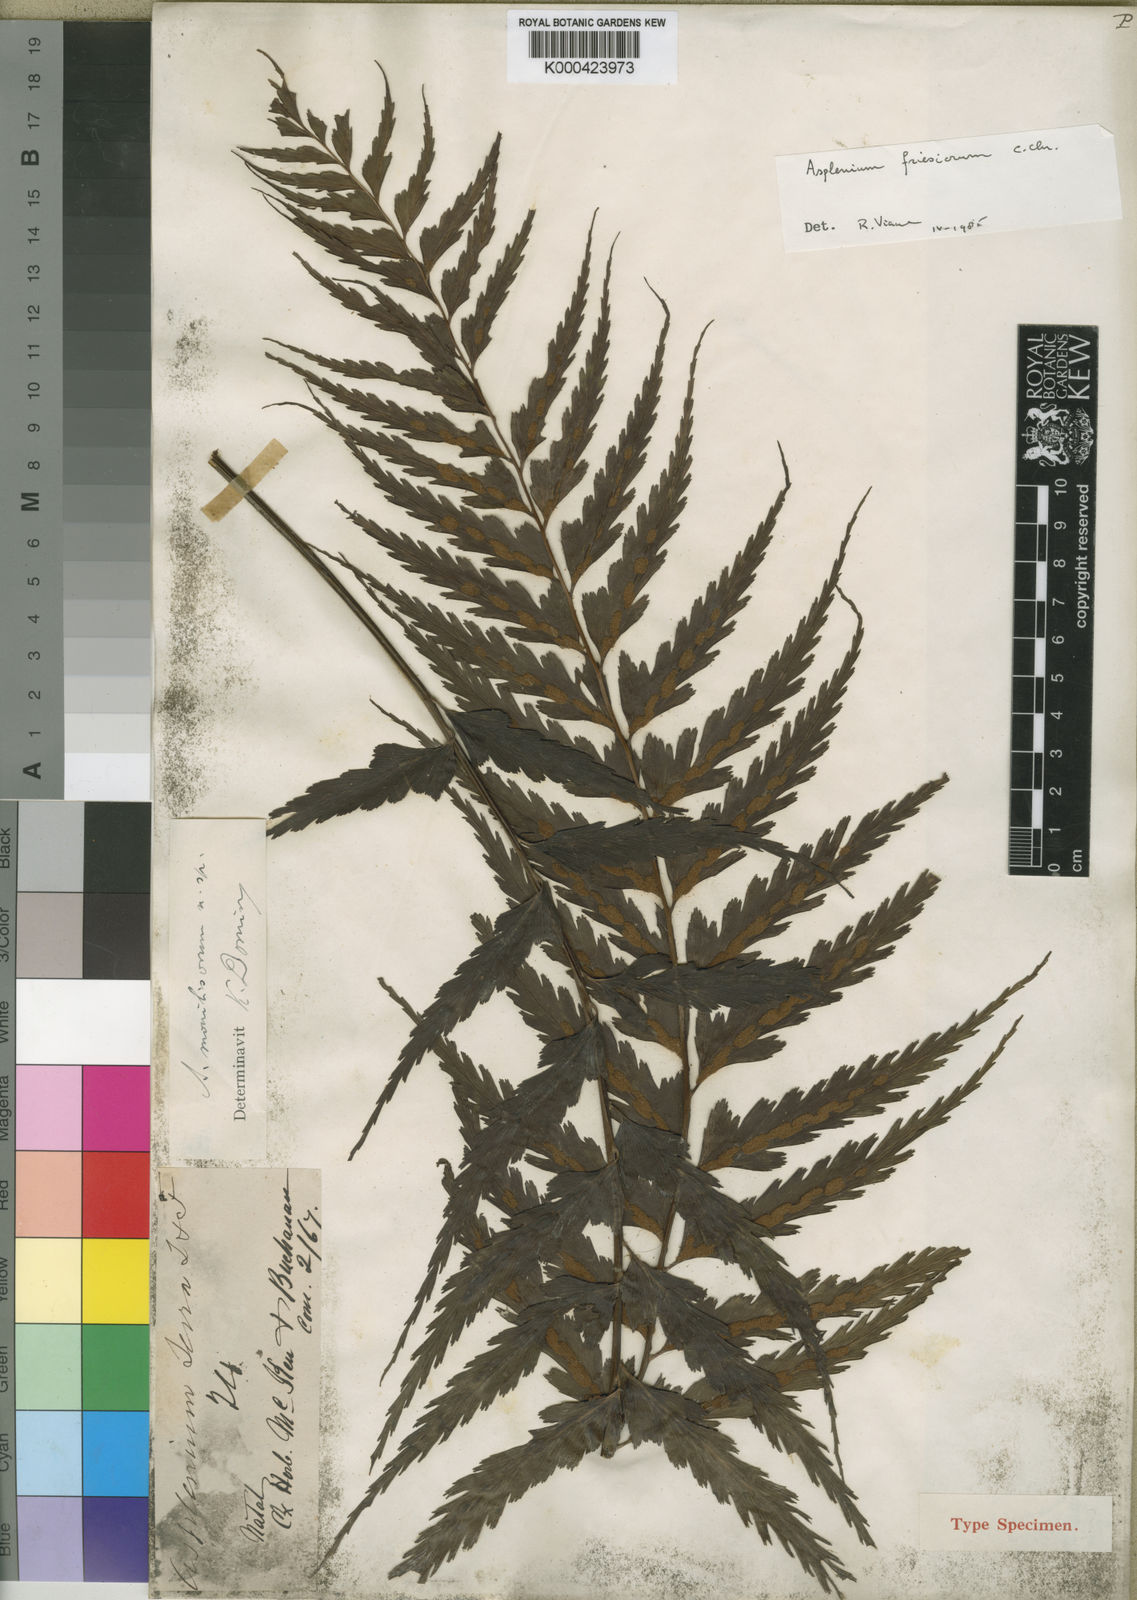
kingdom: Plantae
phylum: Tracheophyta
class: Polypodiopsida
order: Polypodiales
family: Aspleniaceae
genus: Asplenium
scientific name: Asplenium gueinzianum
